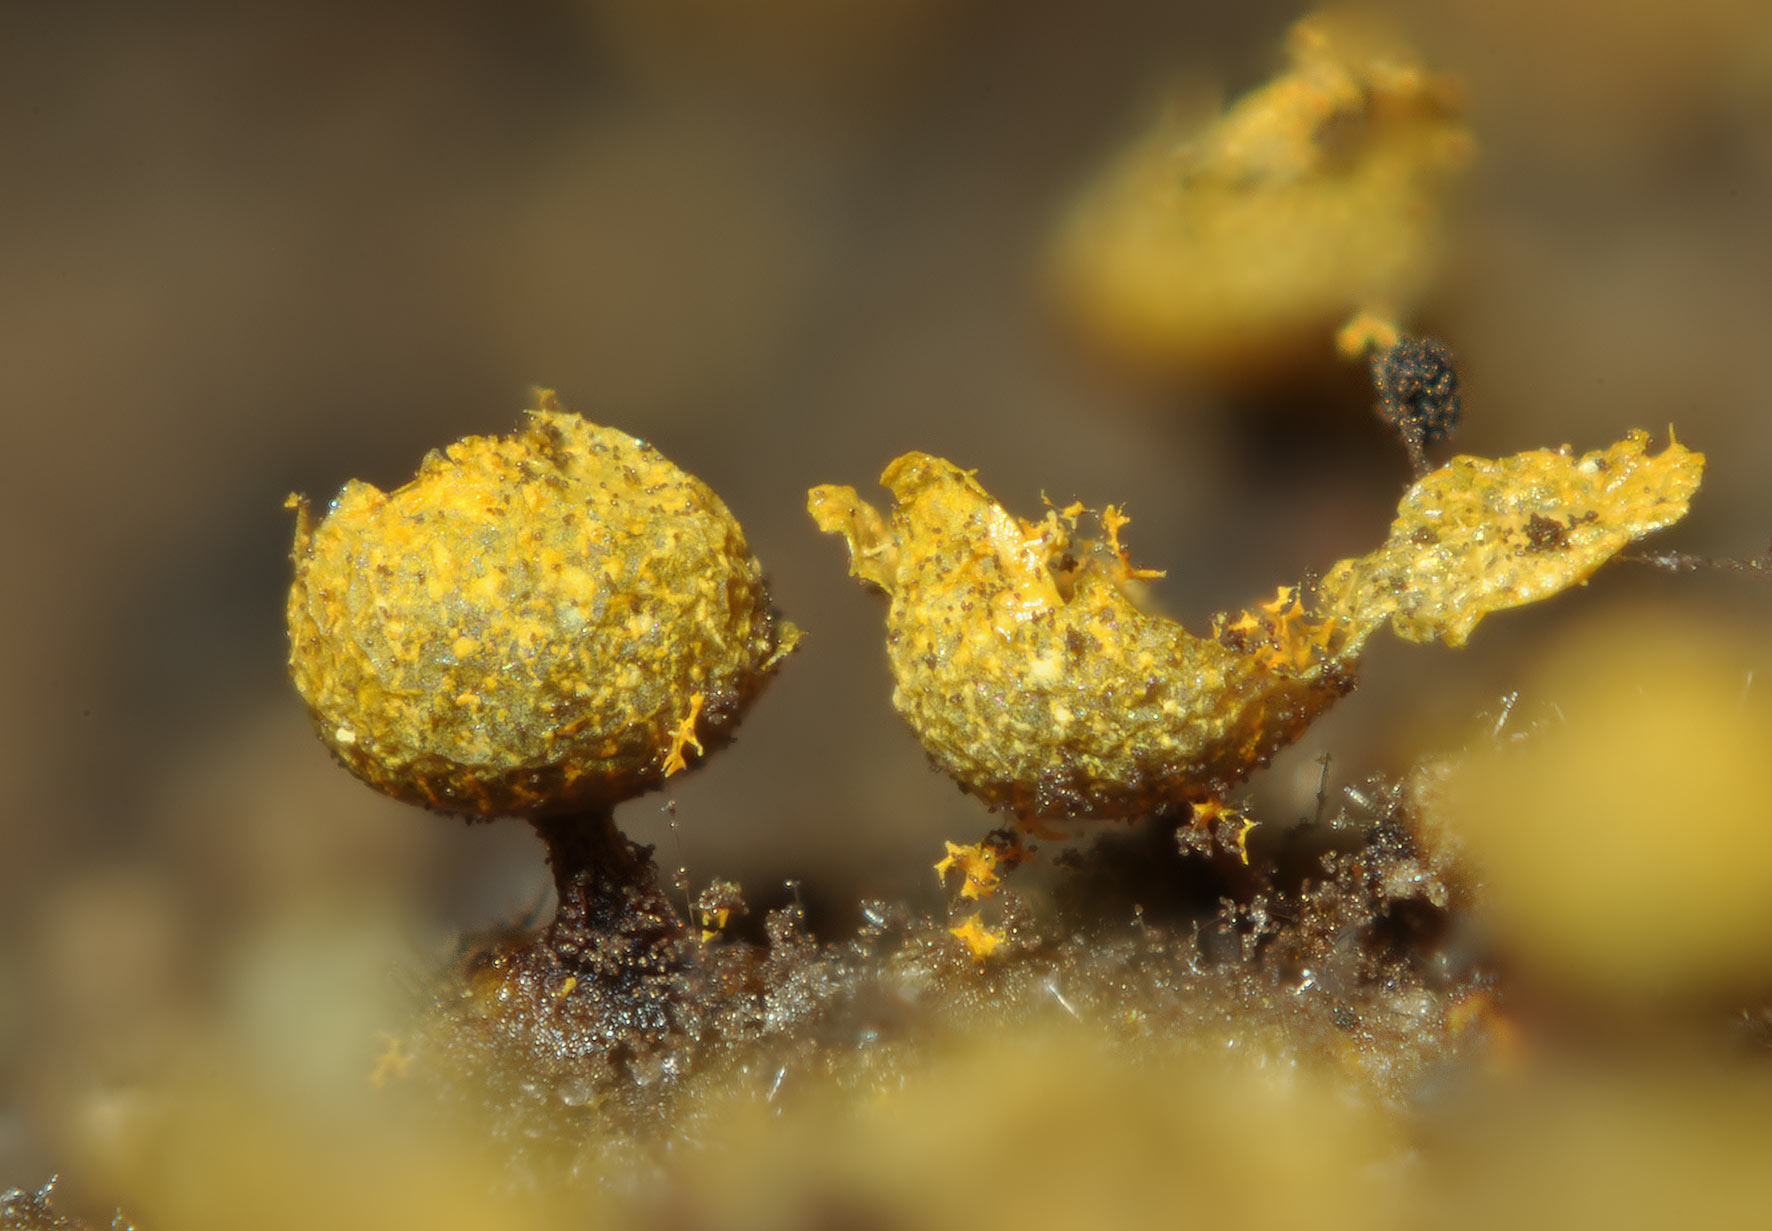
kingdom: Protozoa
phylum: Mycetozoa
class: Myxomycetes
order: Physarales
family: Physaraceae
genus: Physarum
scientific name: Physarum auriscalpium
